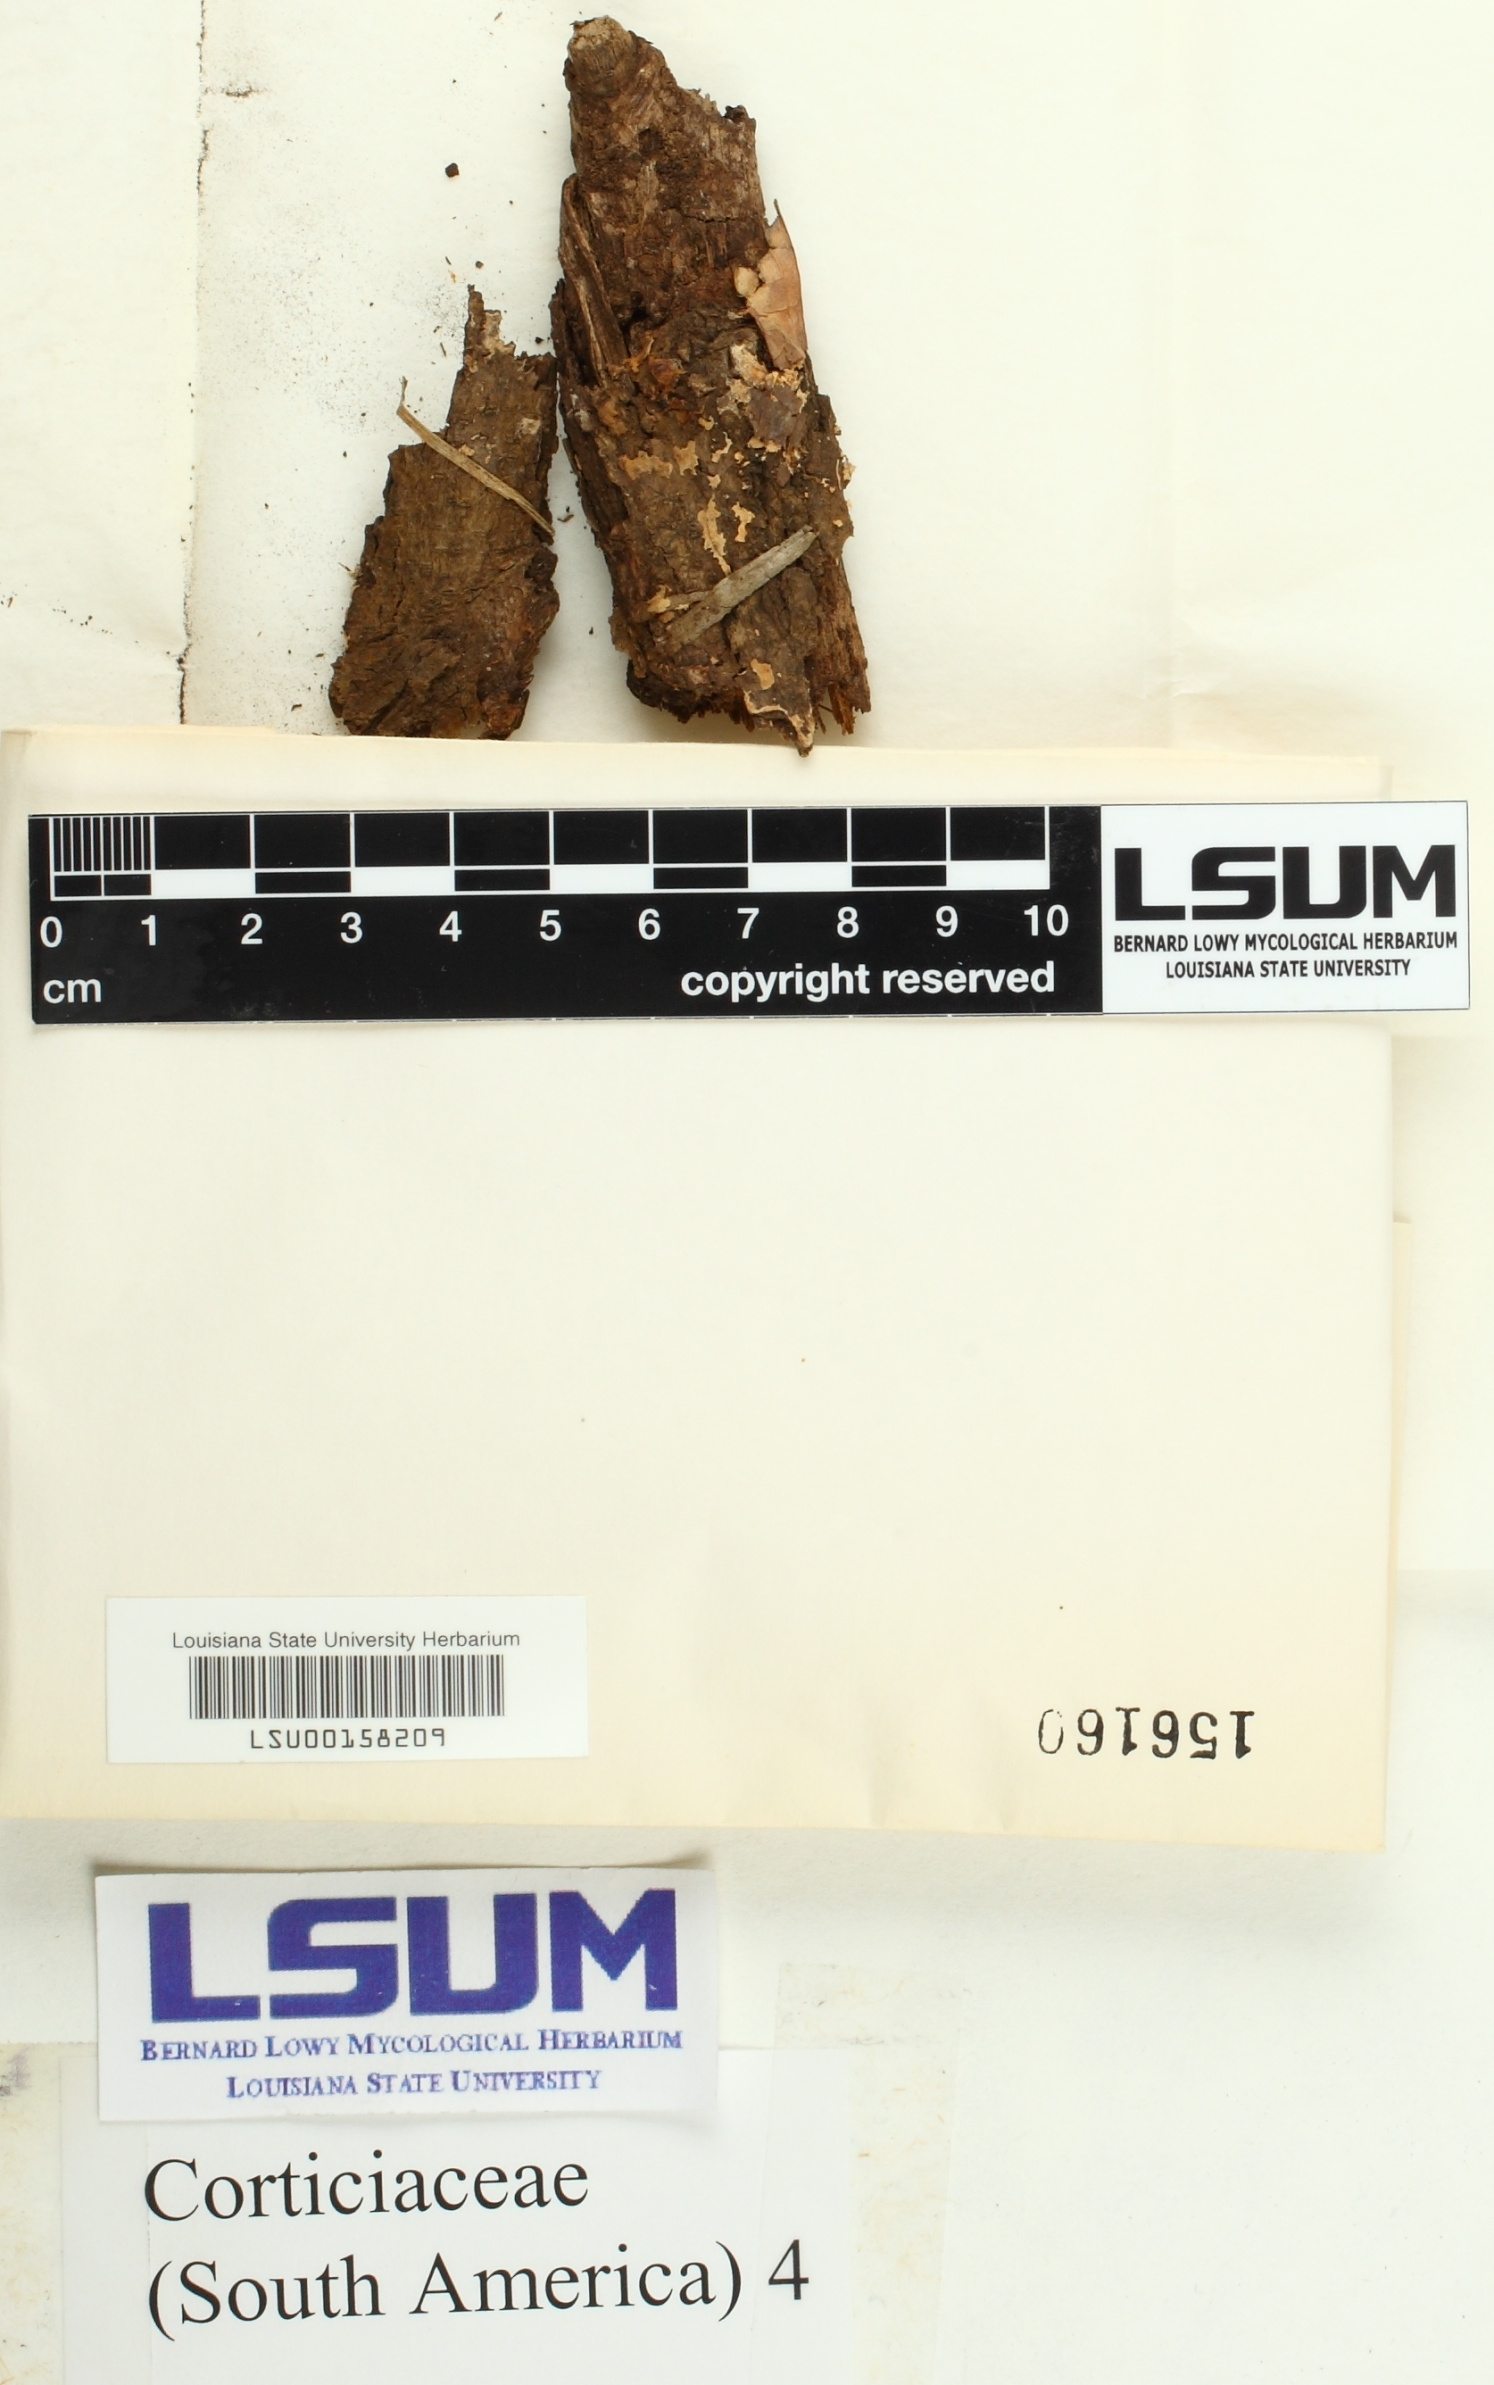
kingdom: Fungi
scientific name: Fungi
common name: Fungi
